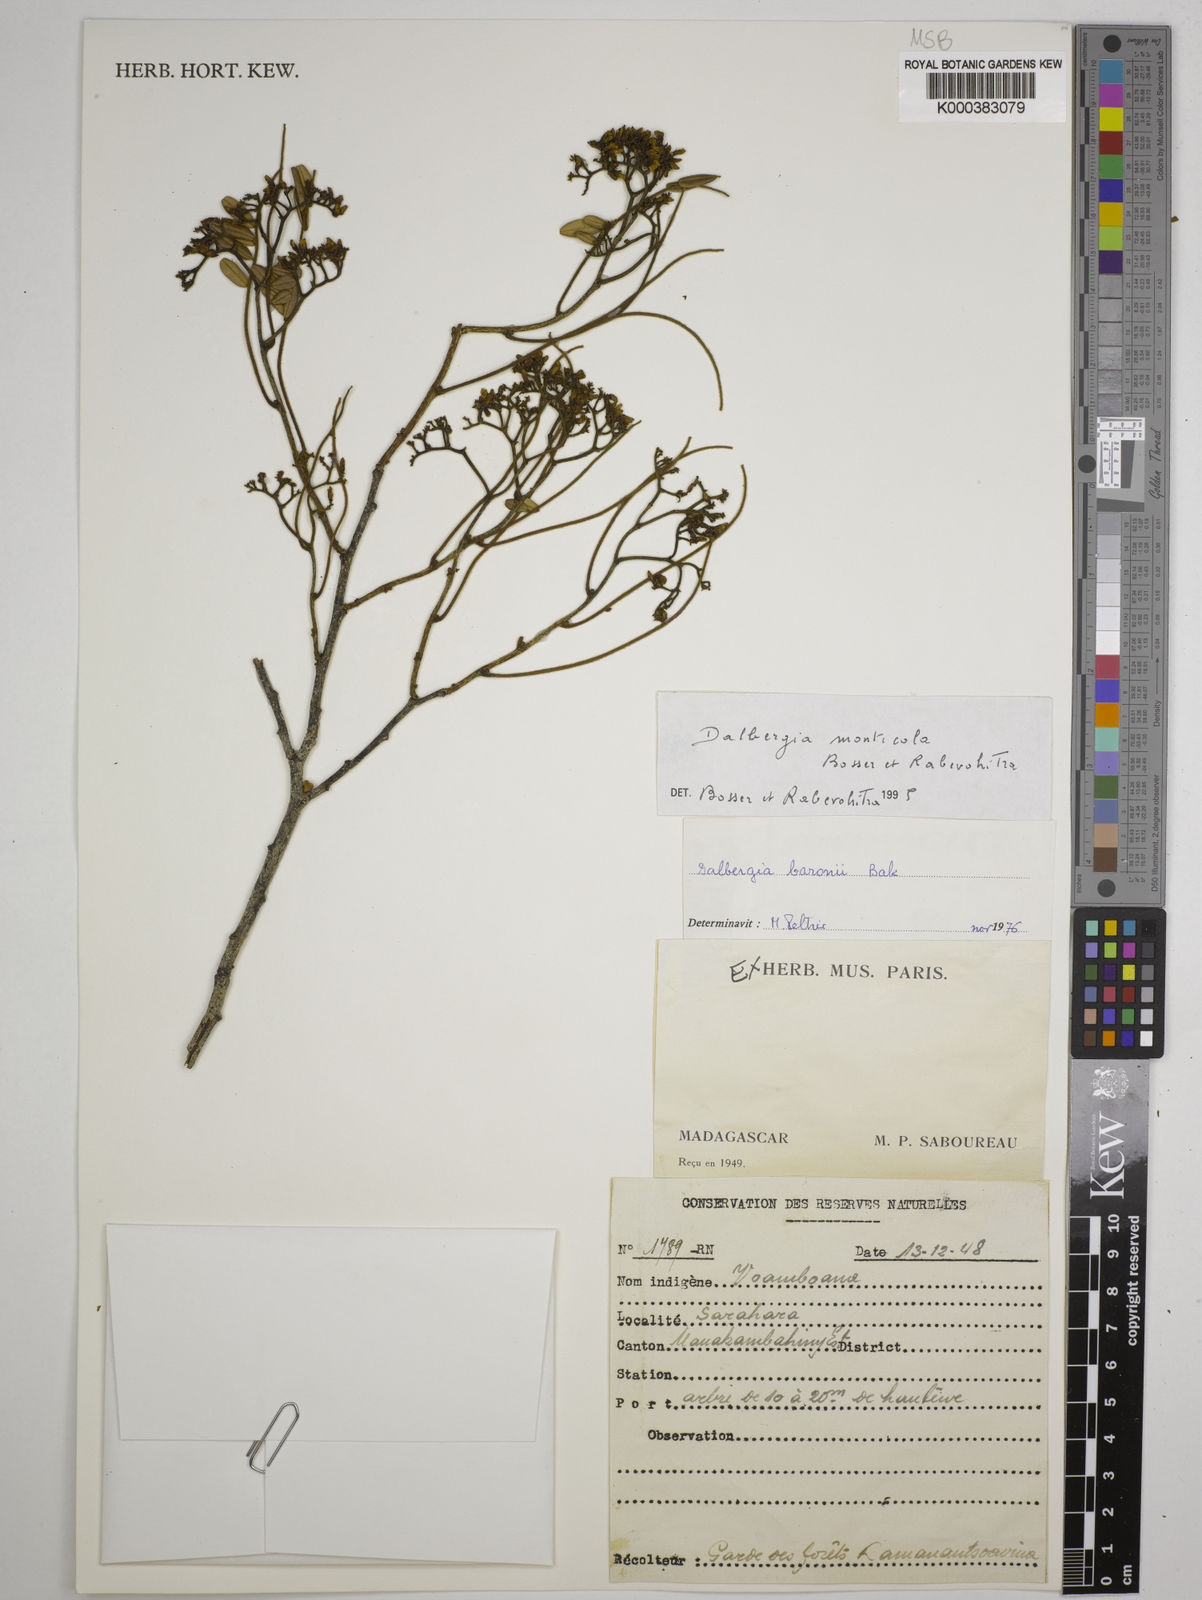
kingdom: Plantae
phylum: Tracheophyta
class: Magnoliopsida
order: Fabales
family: Fabaceae
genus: Dalbergia
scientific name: Dalbergia monticola
